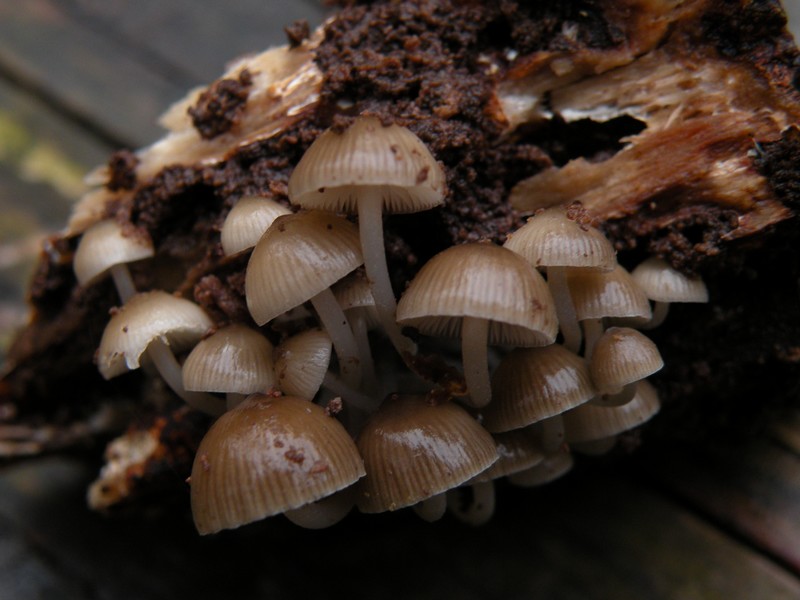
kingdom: Fungi
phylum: Basidiomycota
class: Agaricomycetes
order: Agaricales
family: Mycenaceae
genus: Mycena
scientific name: Mycena tintinnabulum
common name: vinter-huesvamp
